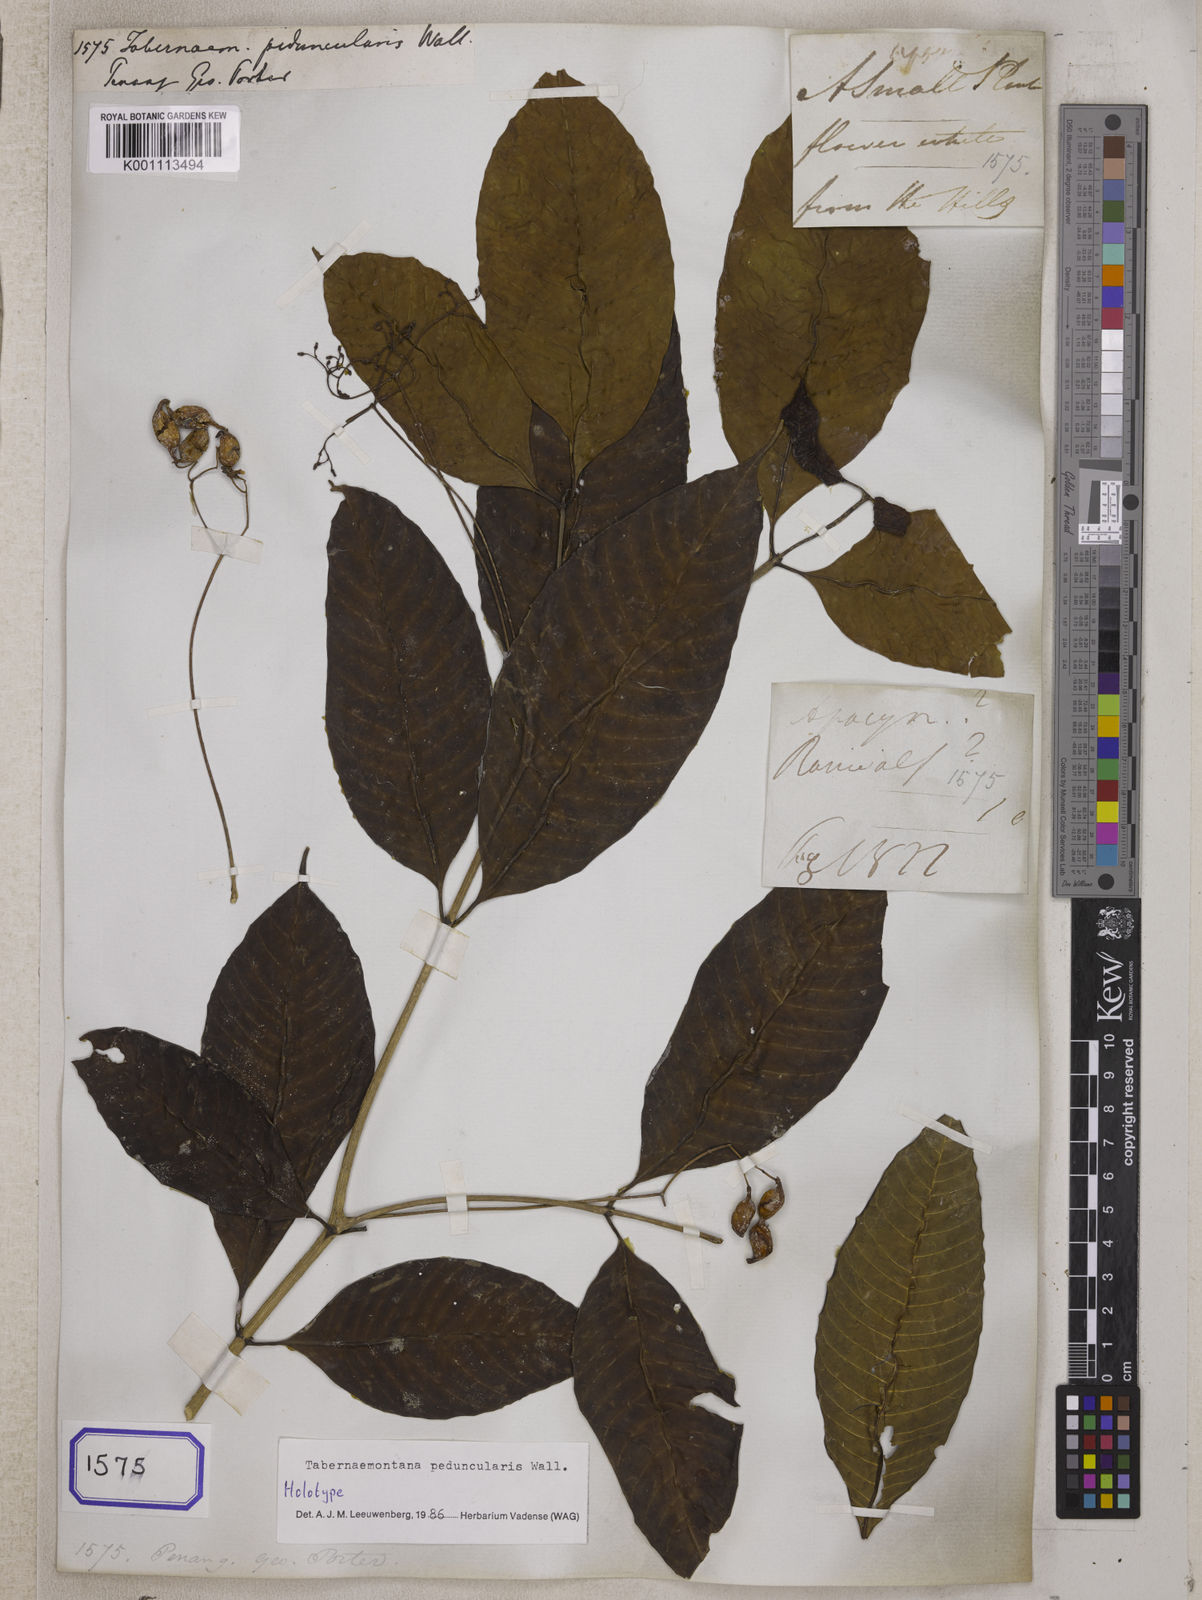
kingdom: Plantae
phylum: Tracheophyta
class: Magnoliopsida
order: Gentianales
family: Apocynaceae
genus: Tabernaemontana
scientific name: Tabernaemontana peduncularis
